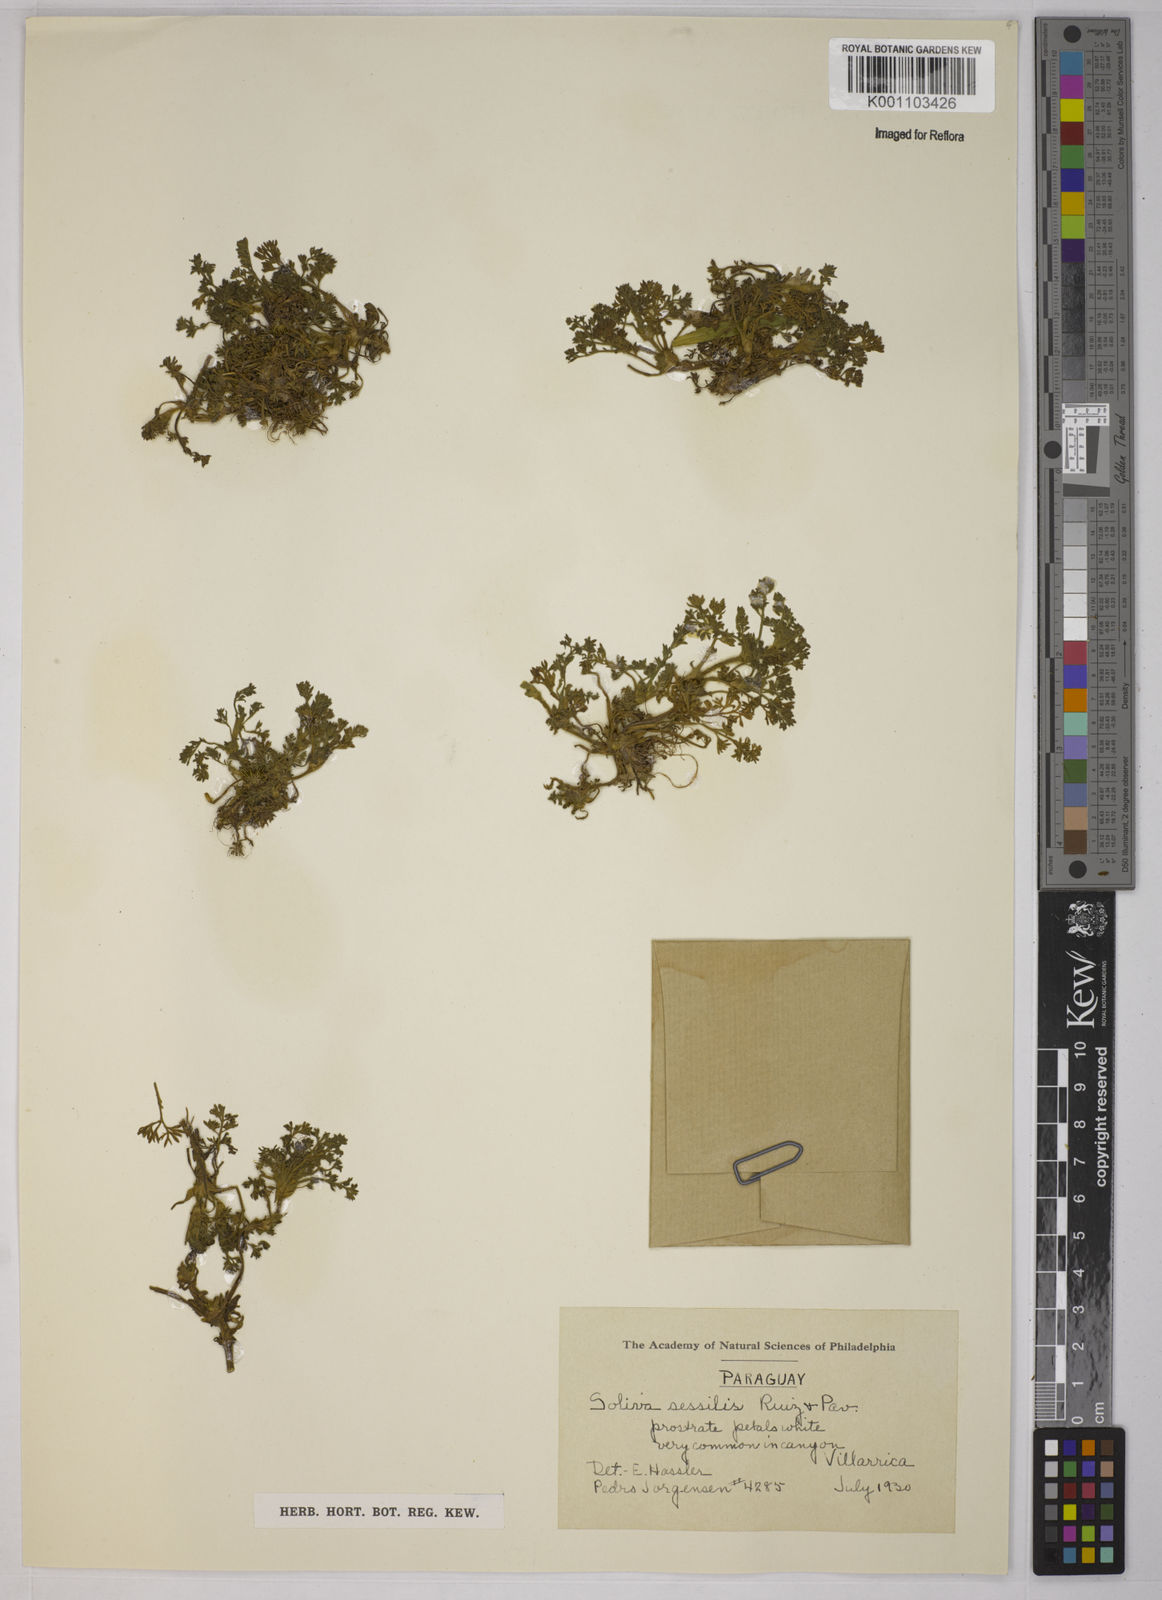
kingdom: Plantae
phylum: Tracheophyta
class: Magnoliopsida
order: Asterales
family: Asteraceae
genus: Soliva
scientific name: Soliva sessilis
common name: Field burrweed
